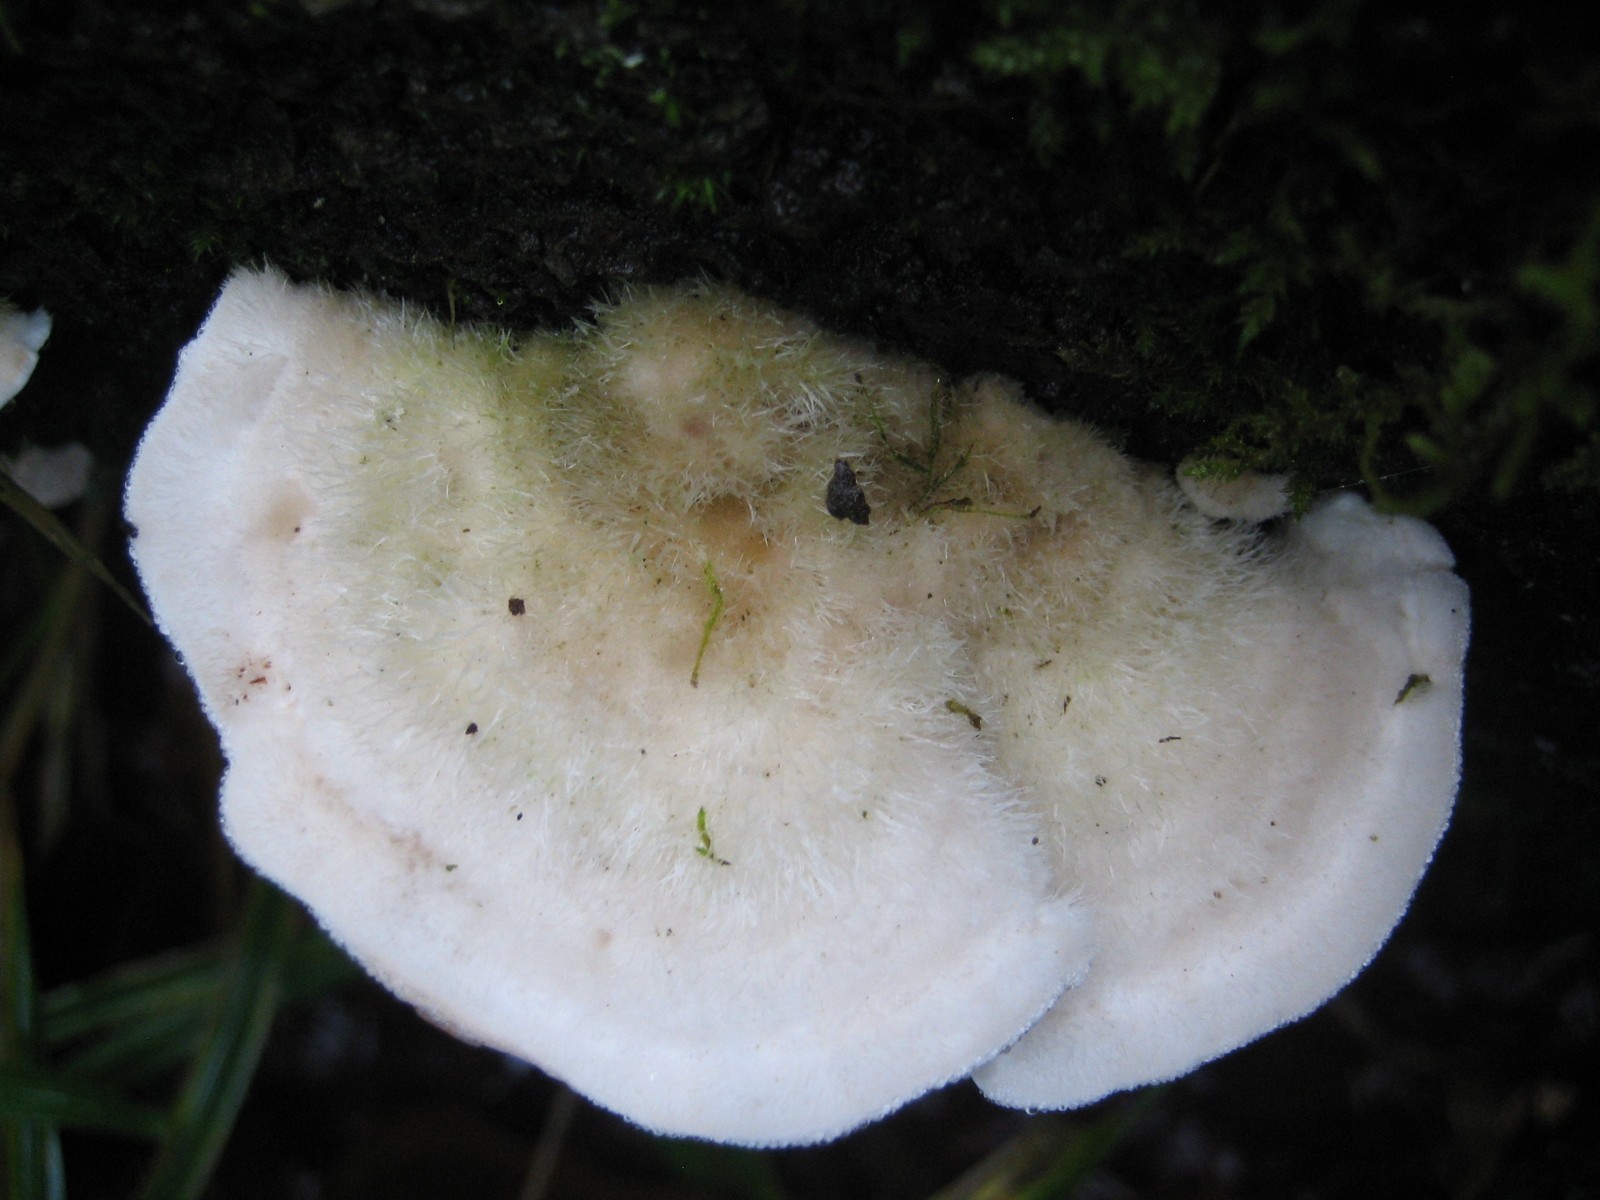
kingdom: Fungi
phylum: Basidiomycota
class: Agaricomycetes
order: Polyporales
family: Polyporaceae
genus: Trametes
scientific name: Trametes hirsuta
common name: håret læderporesvamp
